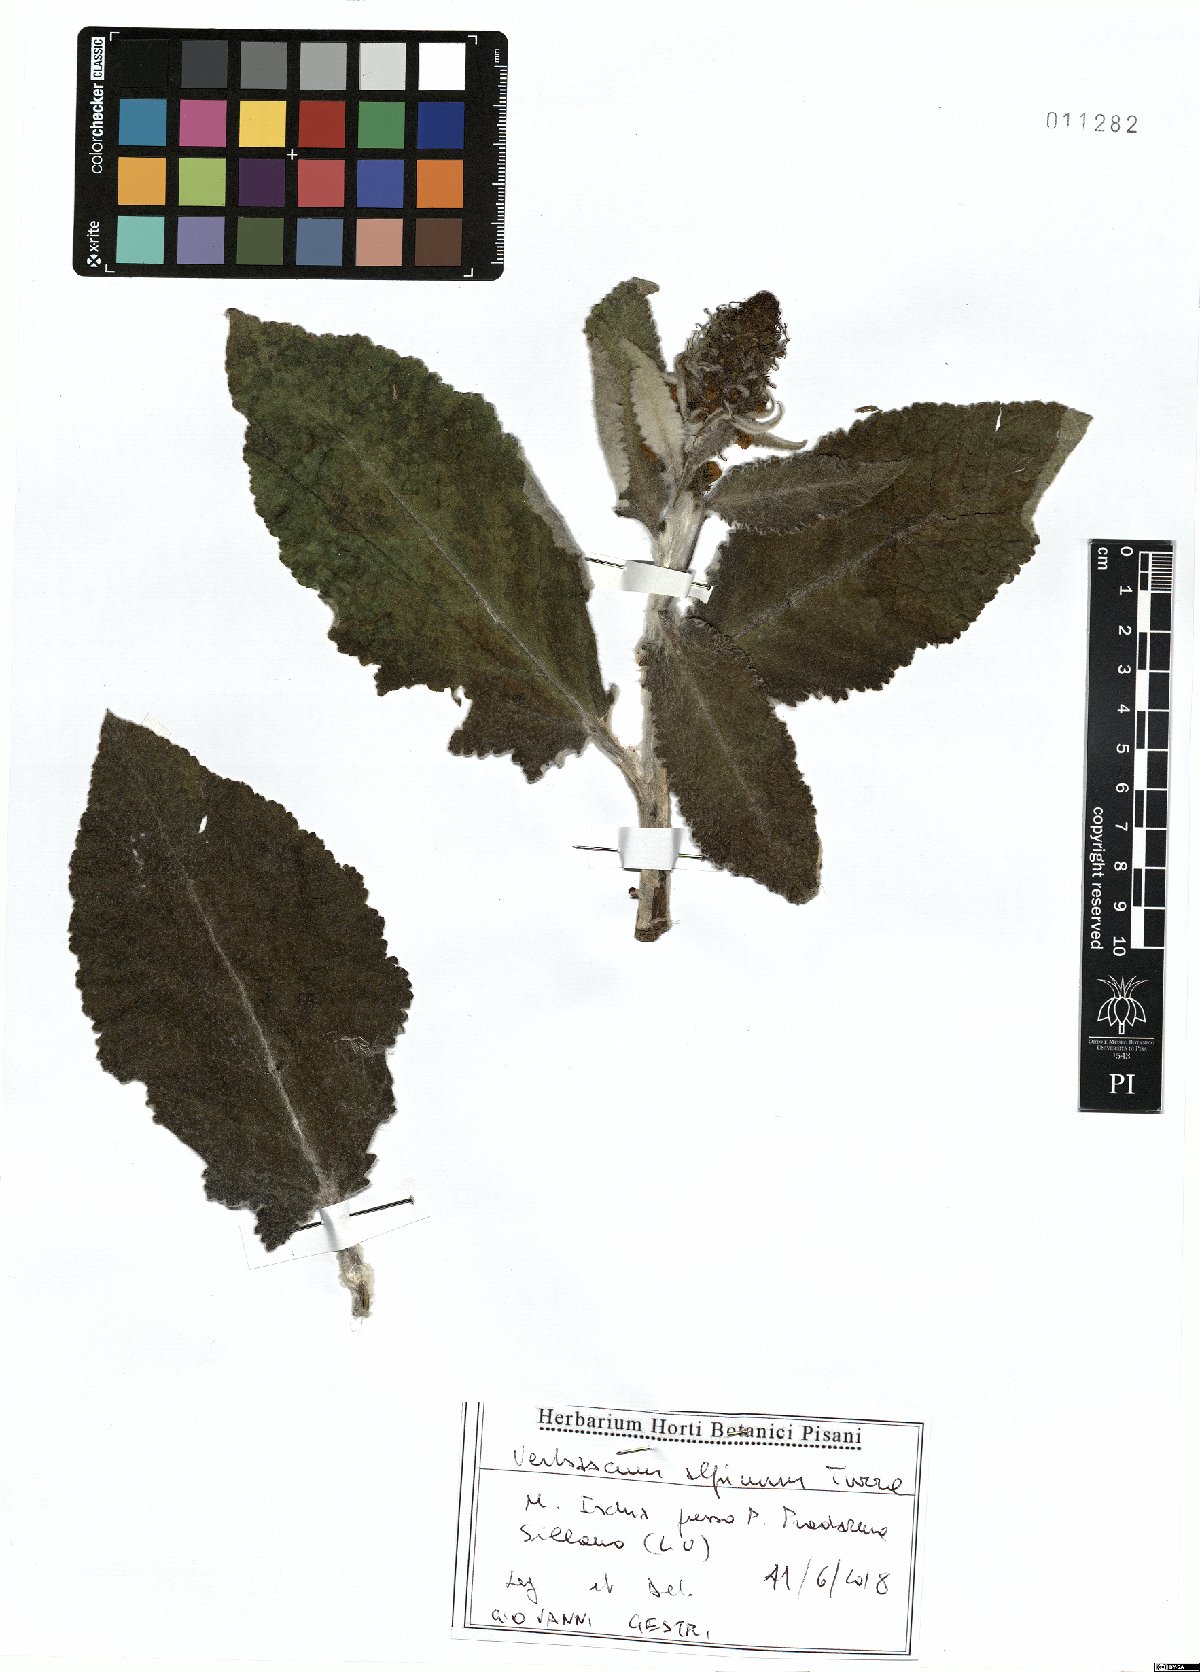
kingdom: Plantae
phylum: Tracheophyta
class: Magnoliopsida
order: Lamiales
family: Scrophulariaceae
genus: Verbascum
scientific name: Verbascum alpinum
